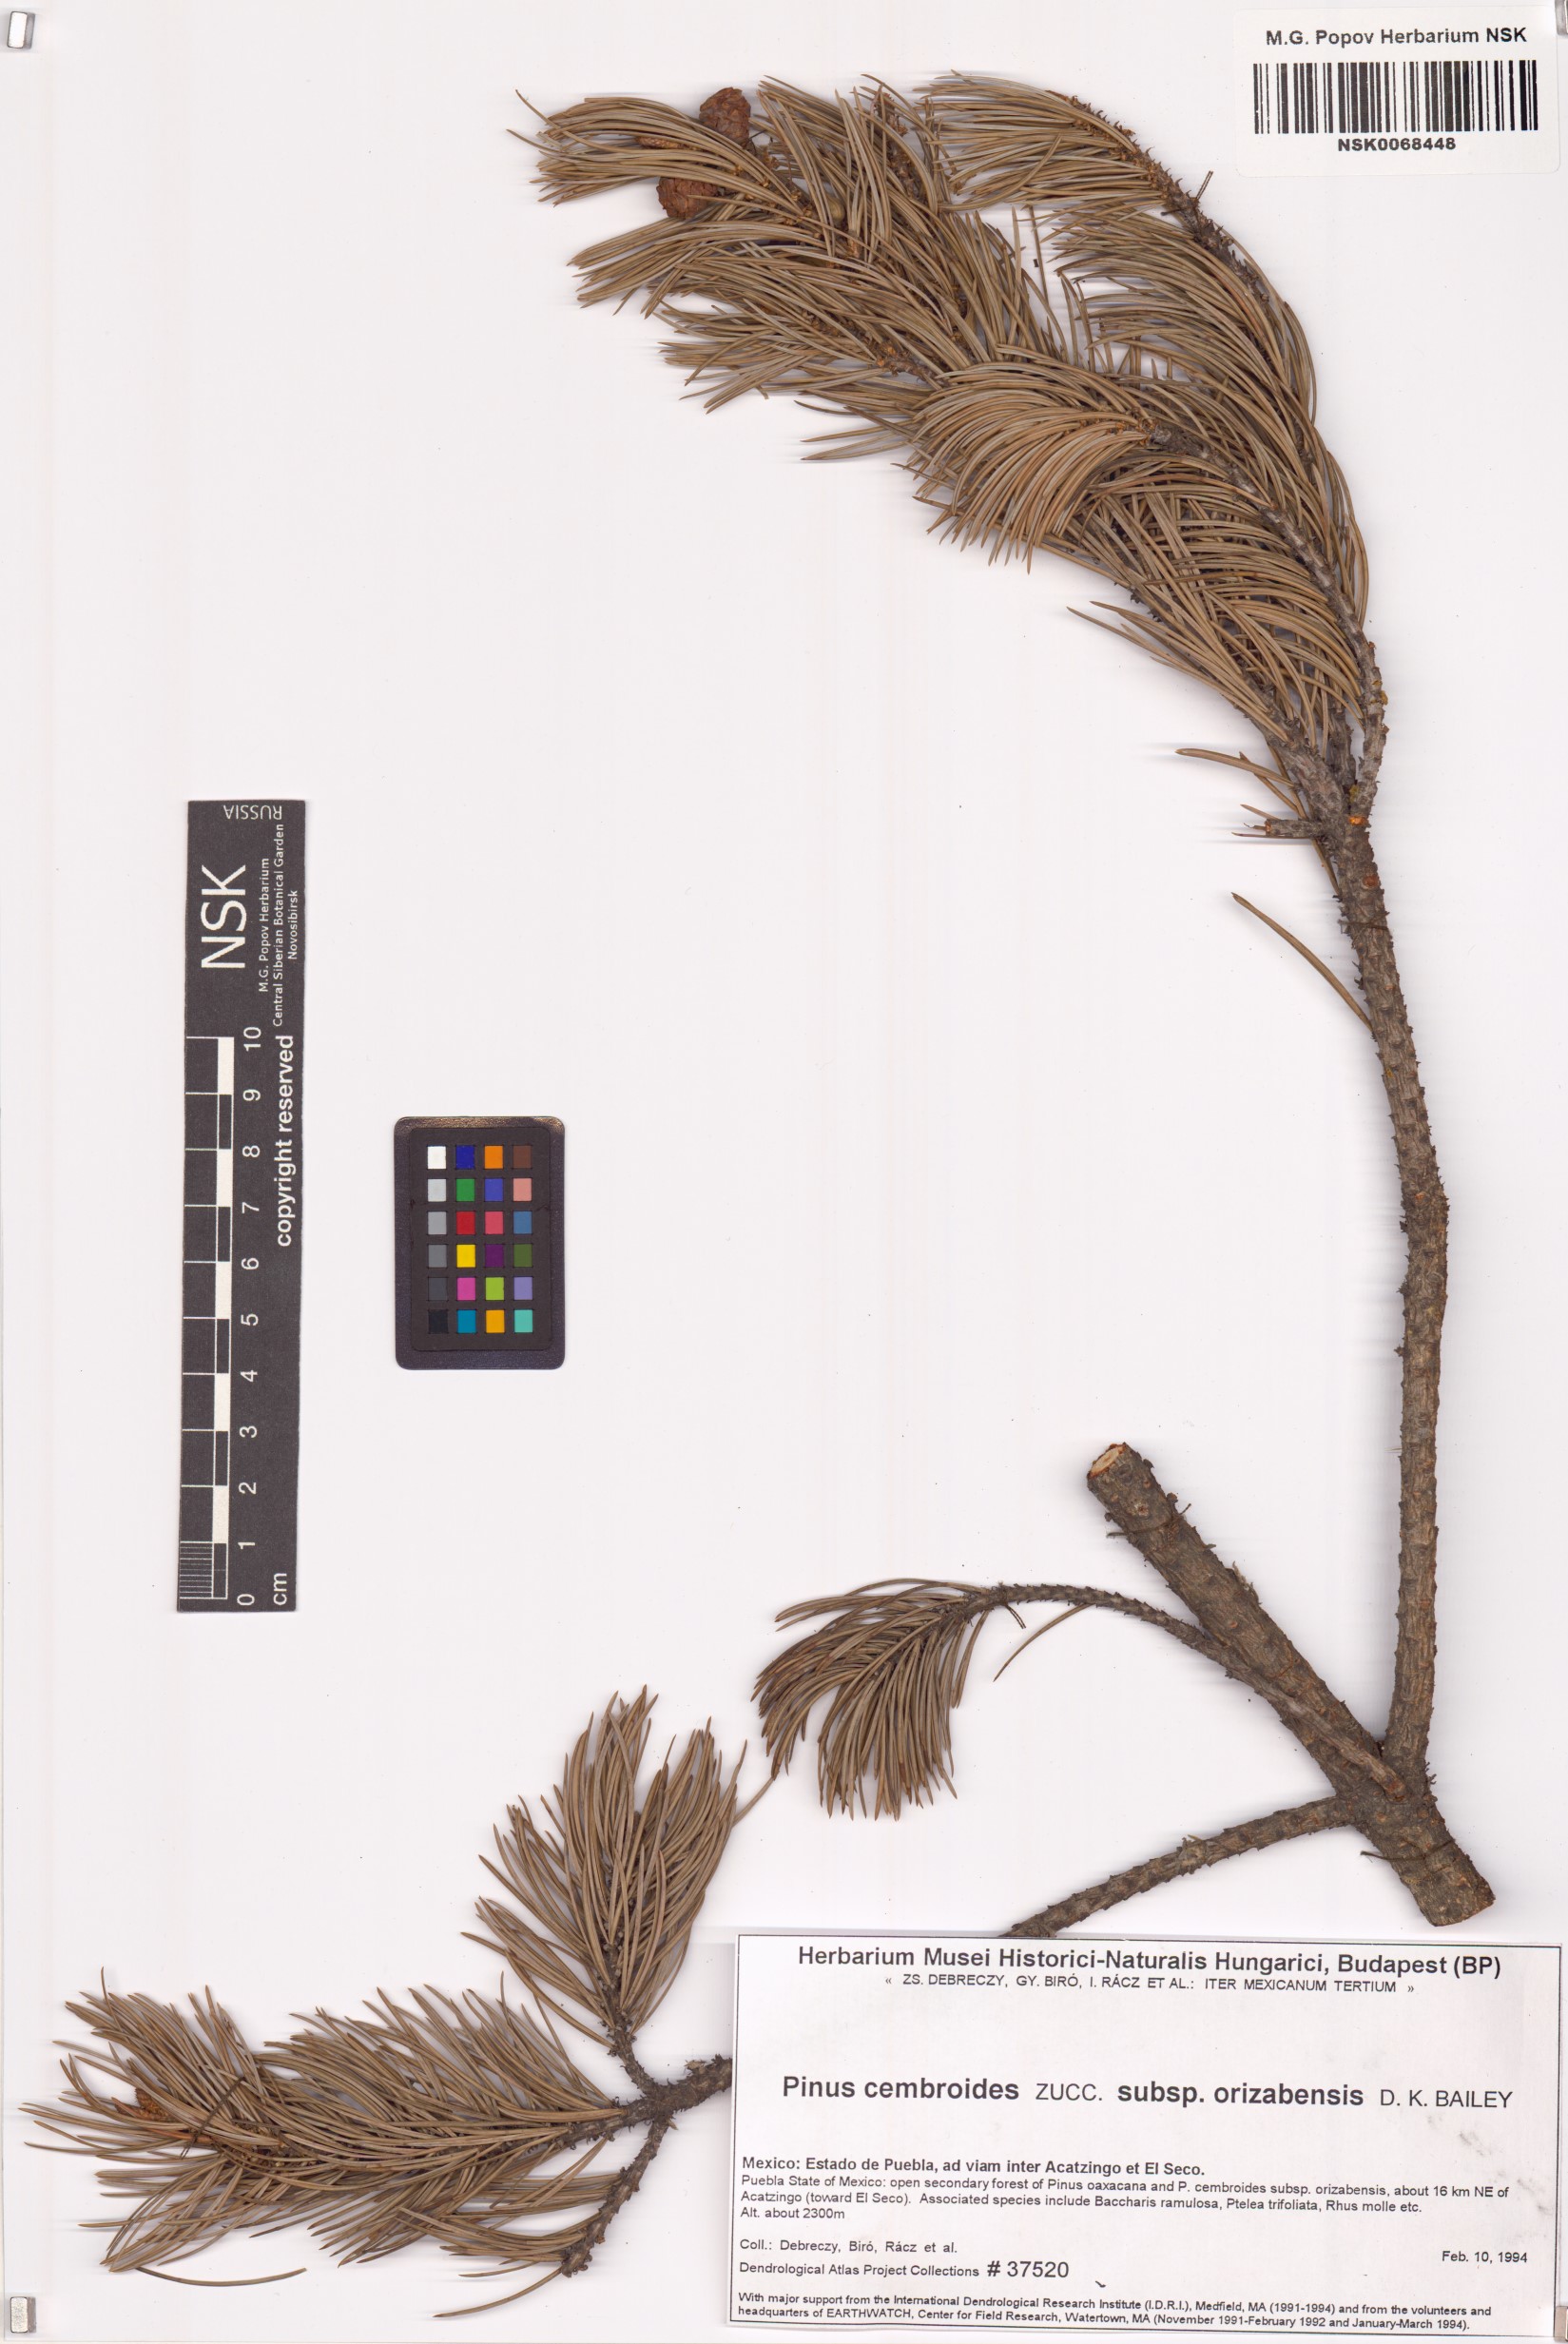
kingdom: Plantae
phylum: Tracheophyta
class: Pinopsida
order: Pinales
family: Pinaceae
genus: Pinus
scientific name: Pinus cembroides
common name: Mexican nut pine
